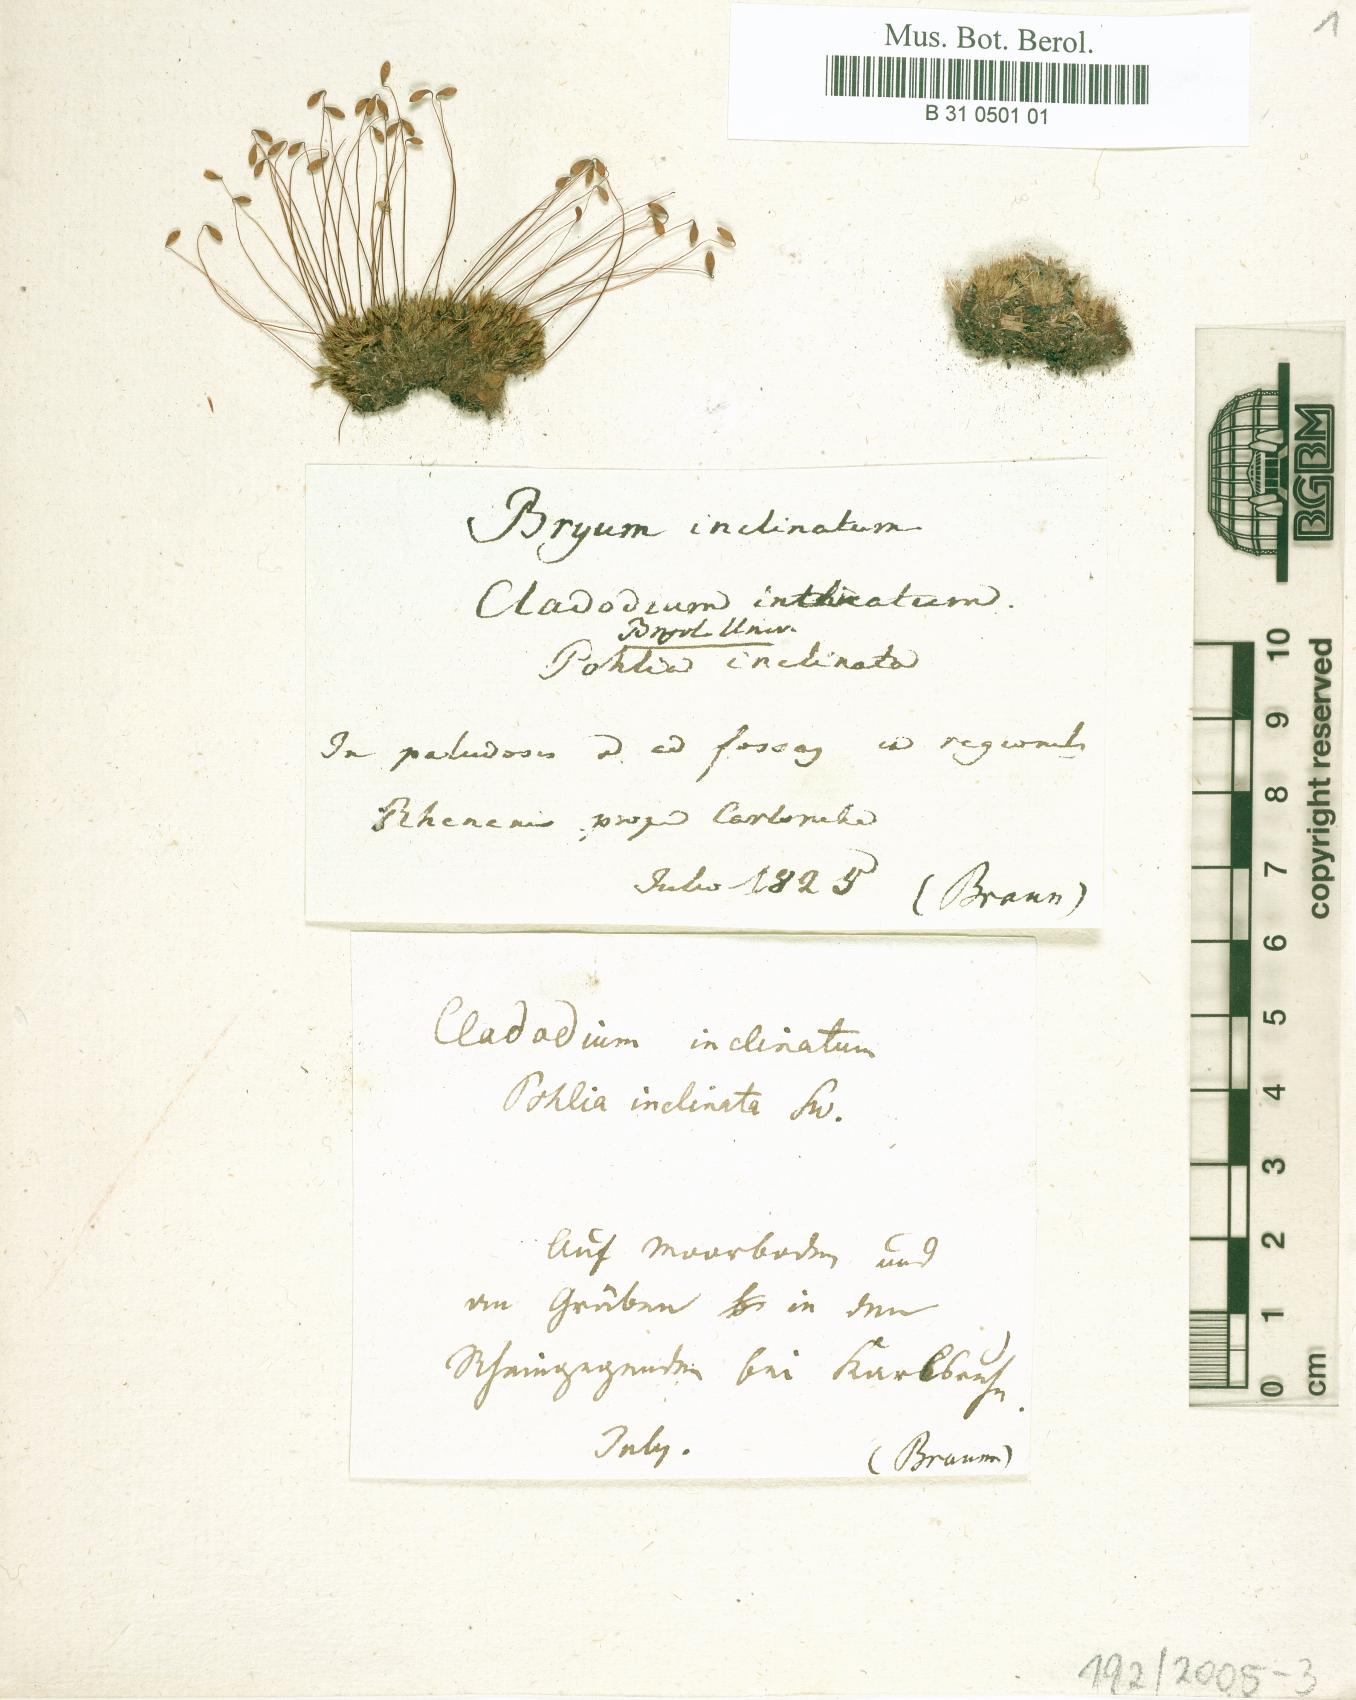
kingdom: Plantae
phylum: Bryophyta
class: Bryopsida
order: Bryales
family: Bryaceae
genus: Ptychostomum
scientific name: Ptychostomum inclinatum
